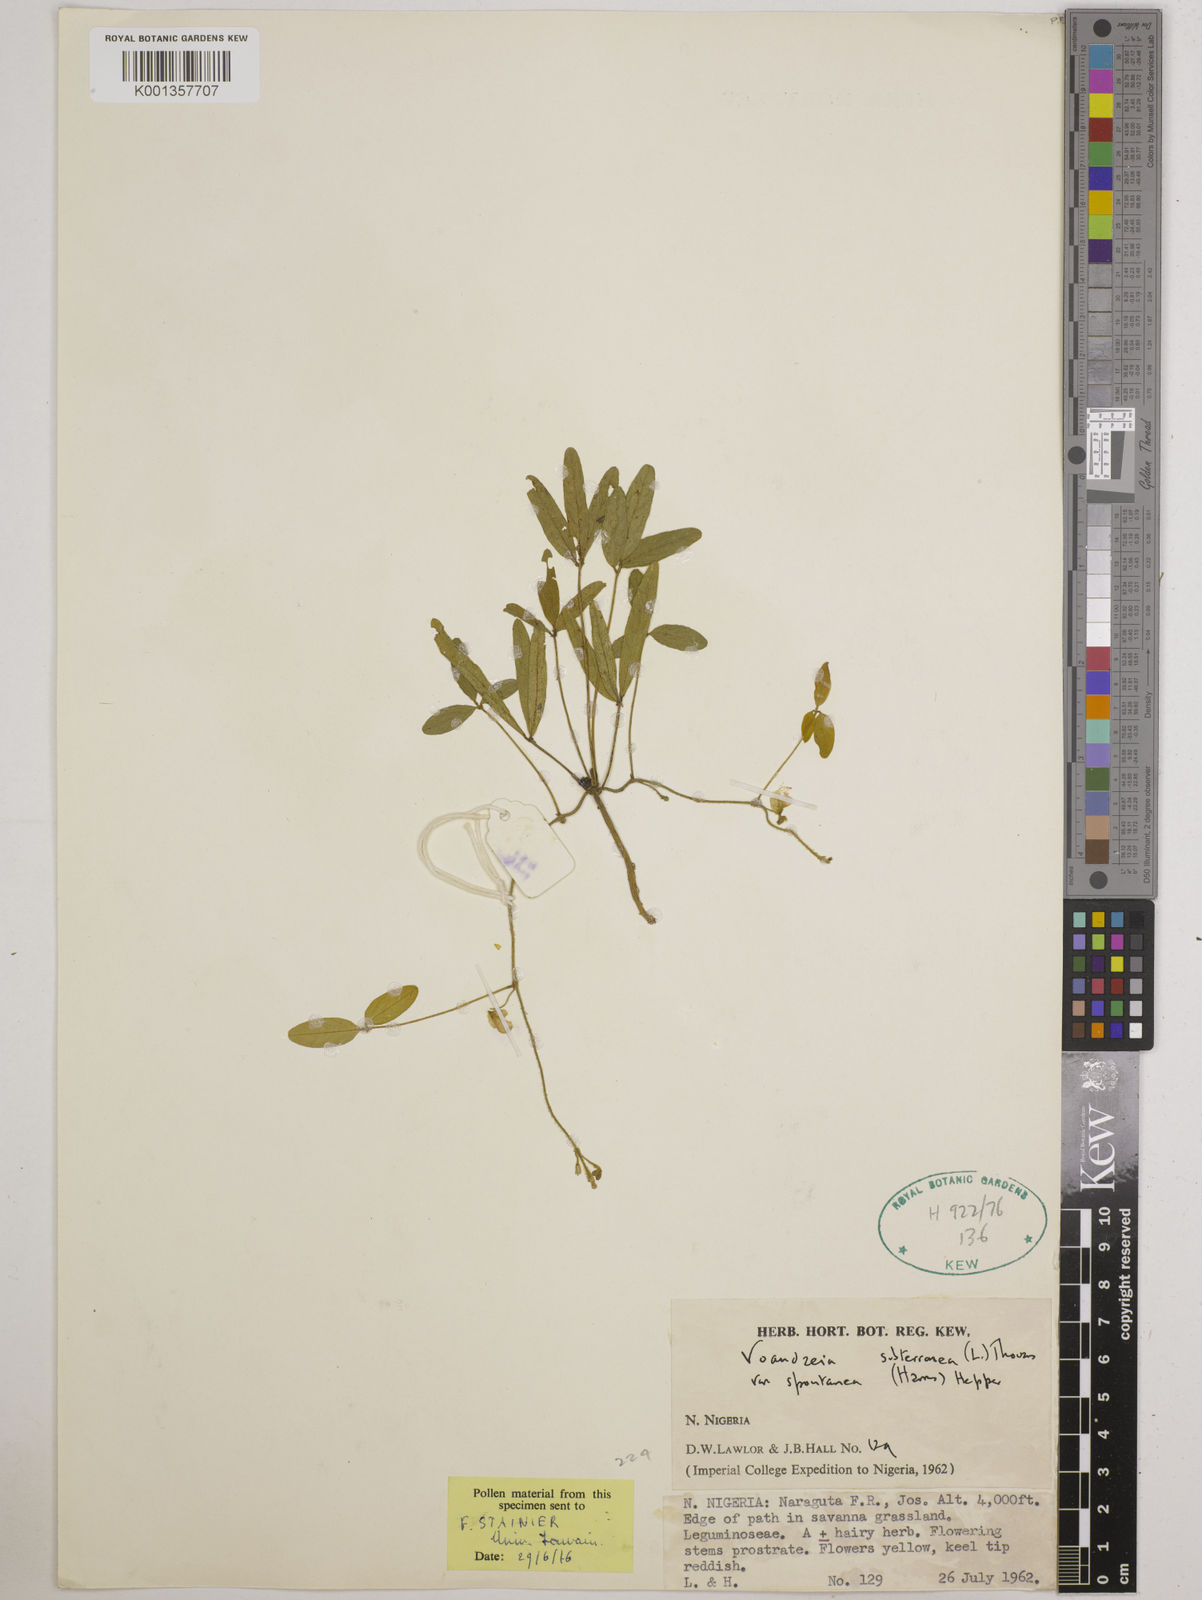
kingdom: Plantae
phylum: Tracheophyta
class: Magnoliopsida
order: Fabales
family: Fabaceae
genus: Vigna
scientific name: Vigna subterranea
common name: Bambara groundnut
